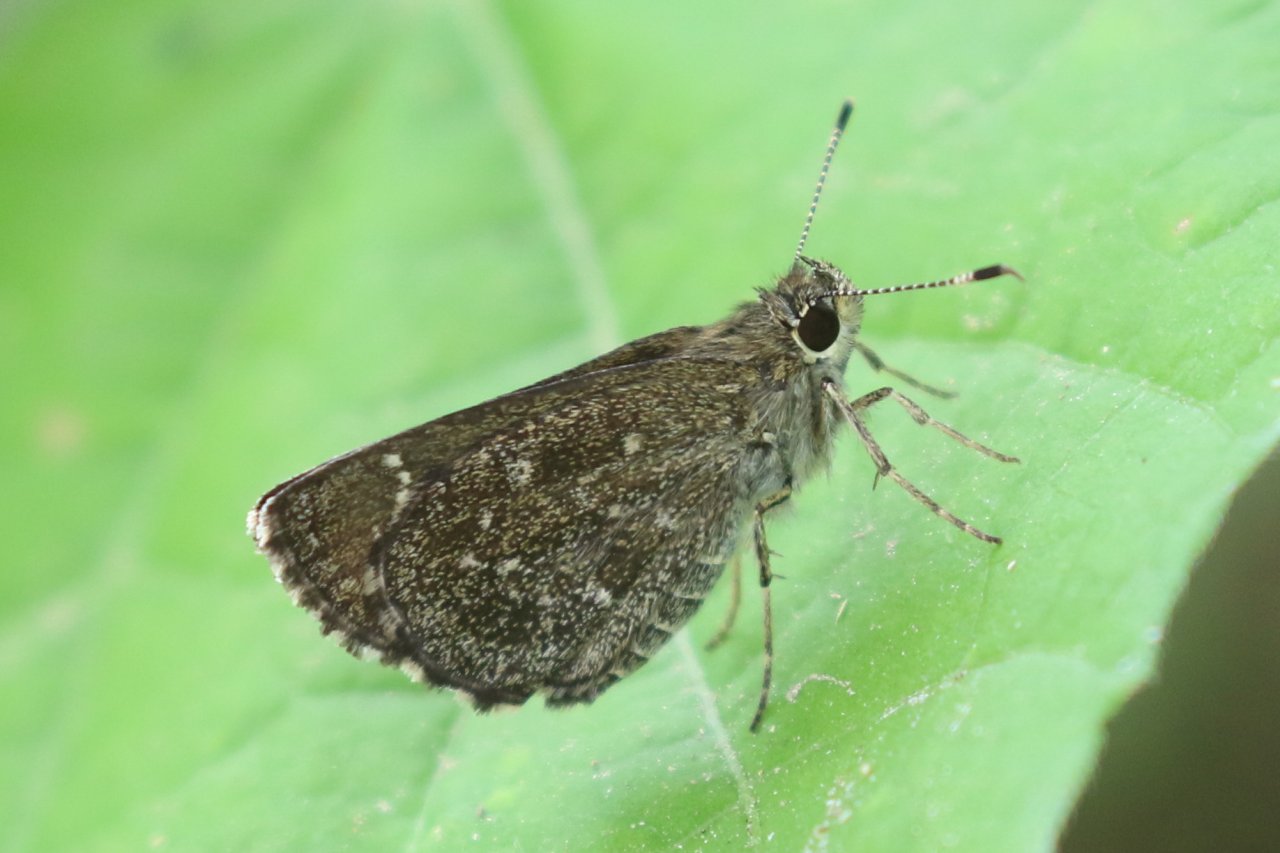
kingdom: Animalia
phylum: Arthropoda
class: Insecta
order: Lepidoptera
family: Hesperiidae
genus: Mastor
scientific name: Mastor celia
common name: Celia's Roadside-Skipper
